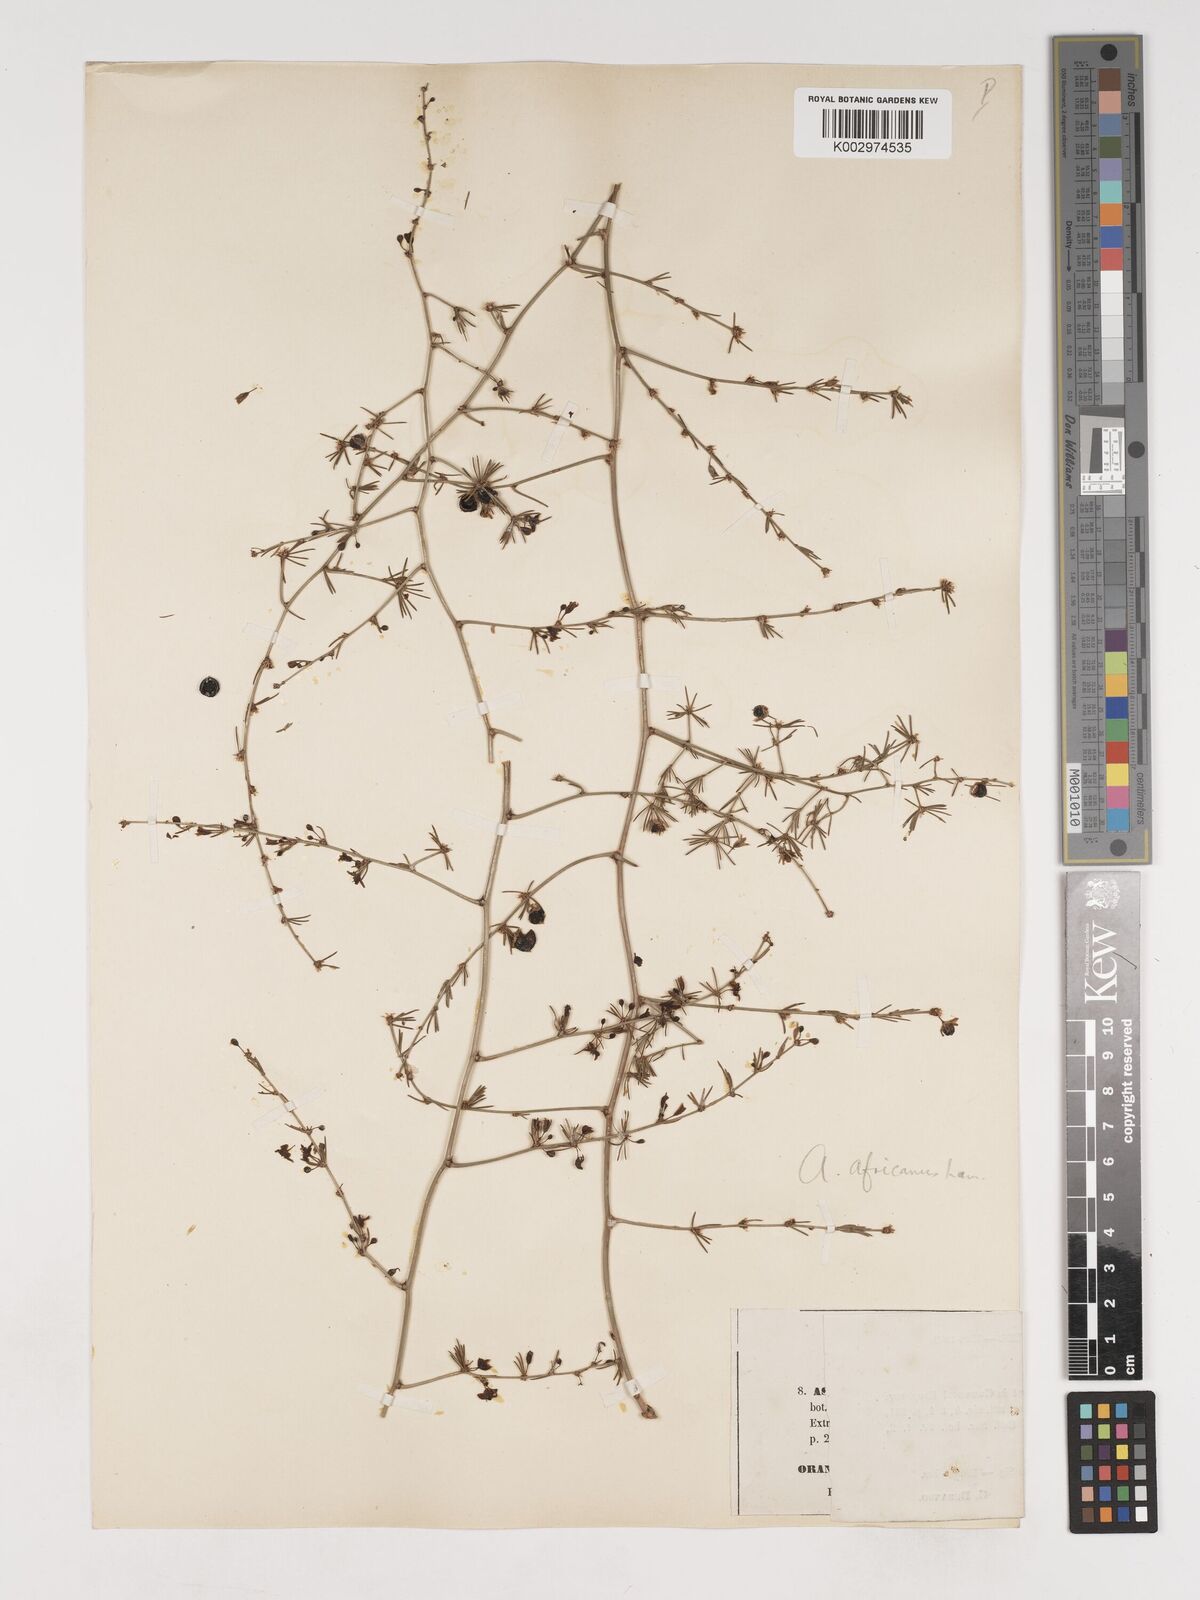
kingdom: Plantae
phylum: Tracheophyta
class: Liliopsida
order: Asparagales
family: Asparagaceae
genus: Asparagus
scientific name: Asparagus scoparius
